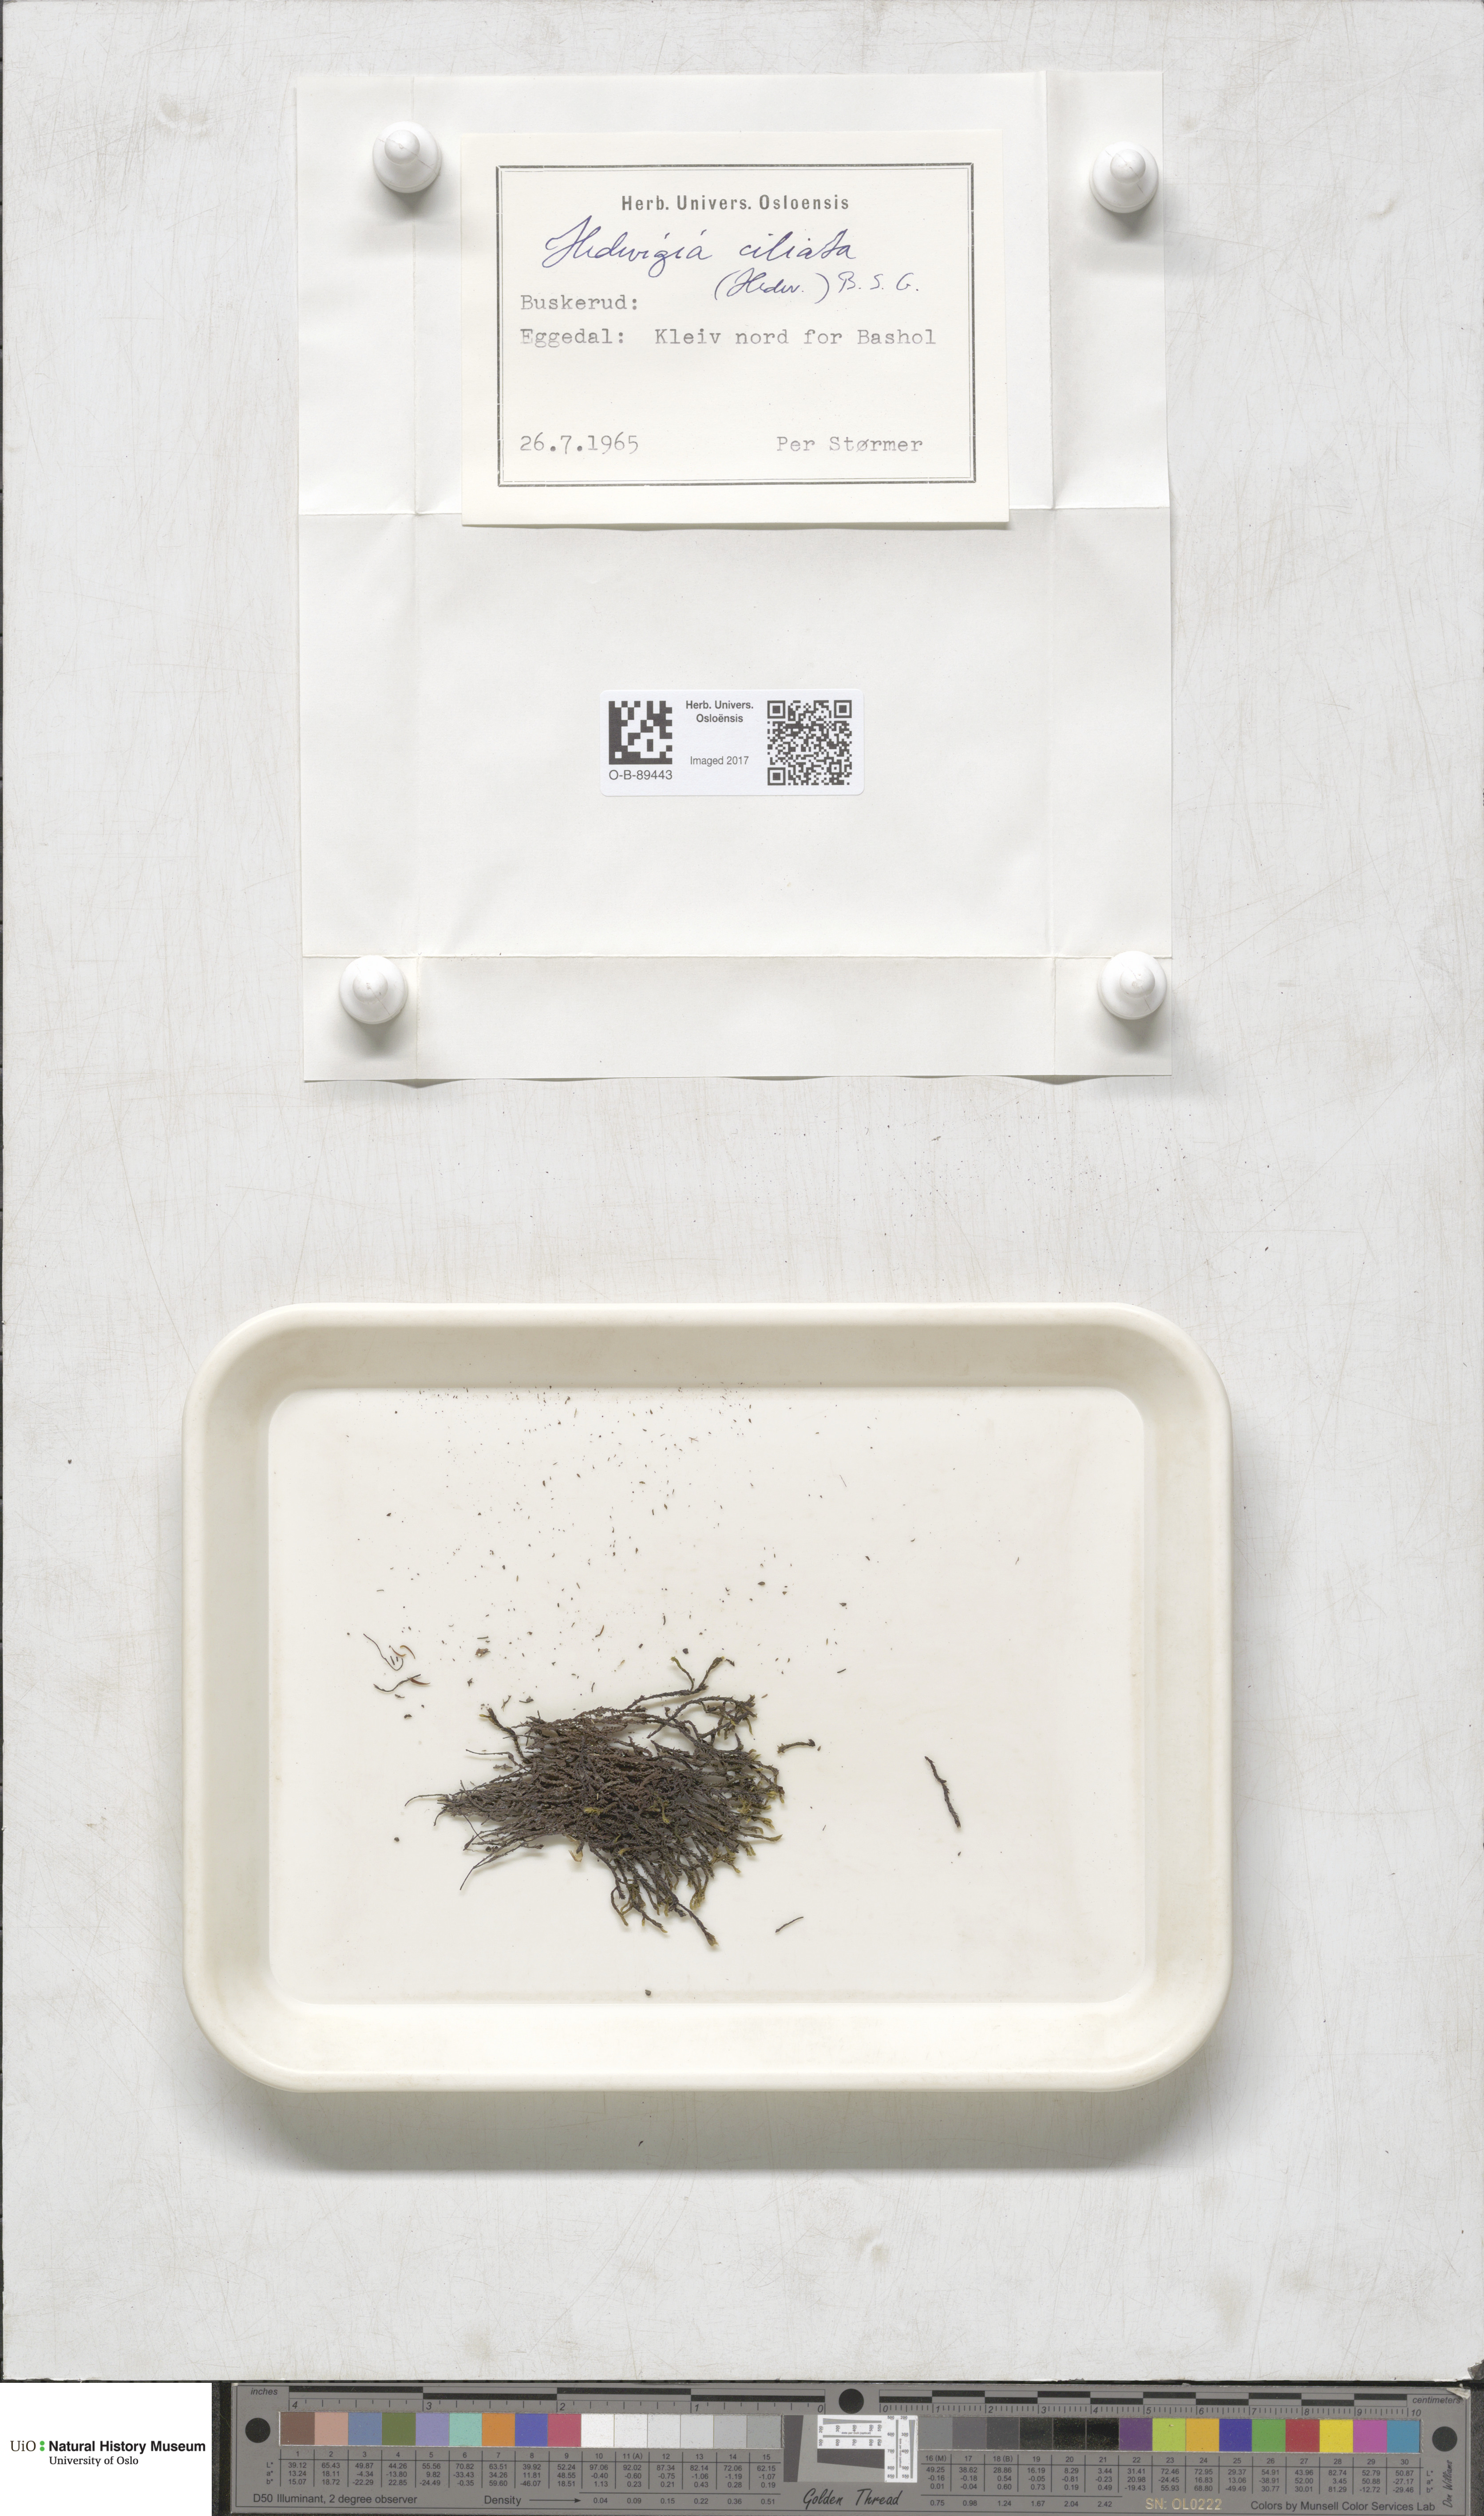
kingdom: Plantae
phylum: Bryophyta
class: Bryopsida
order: Hedwigiales
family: Hedwigiaceae
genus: Hedwigia
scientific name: Hedwigia ciliata
